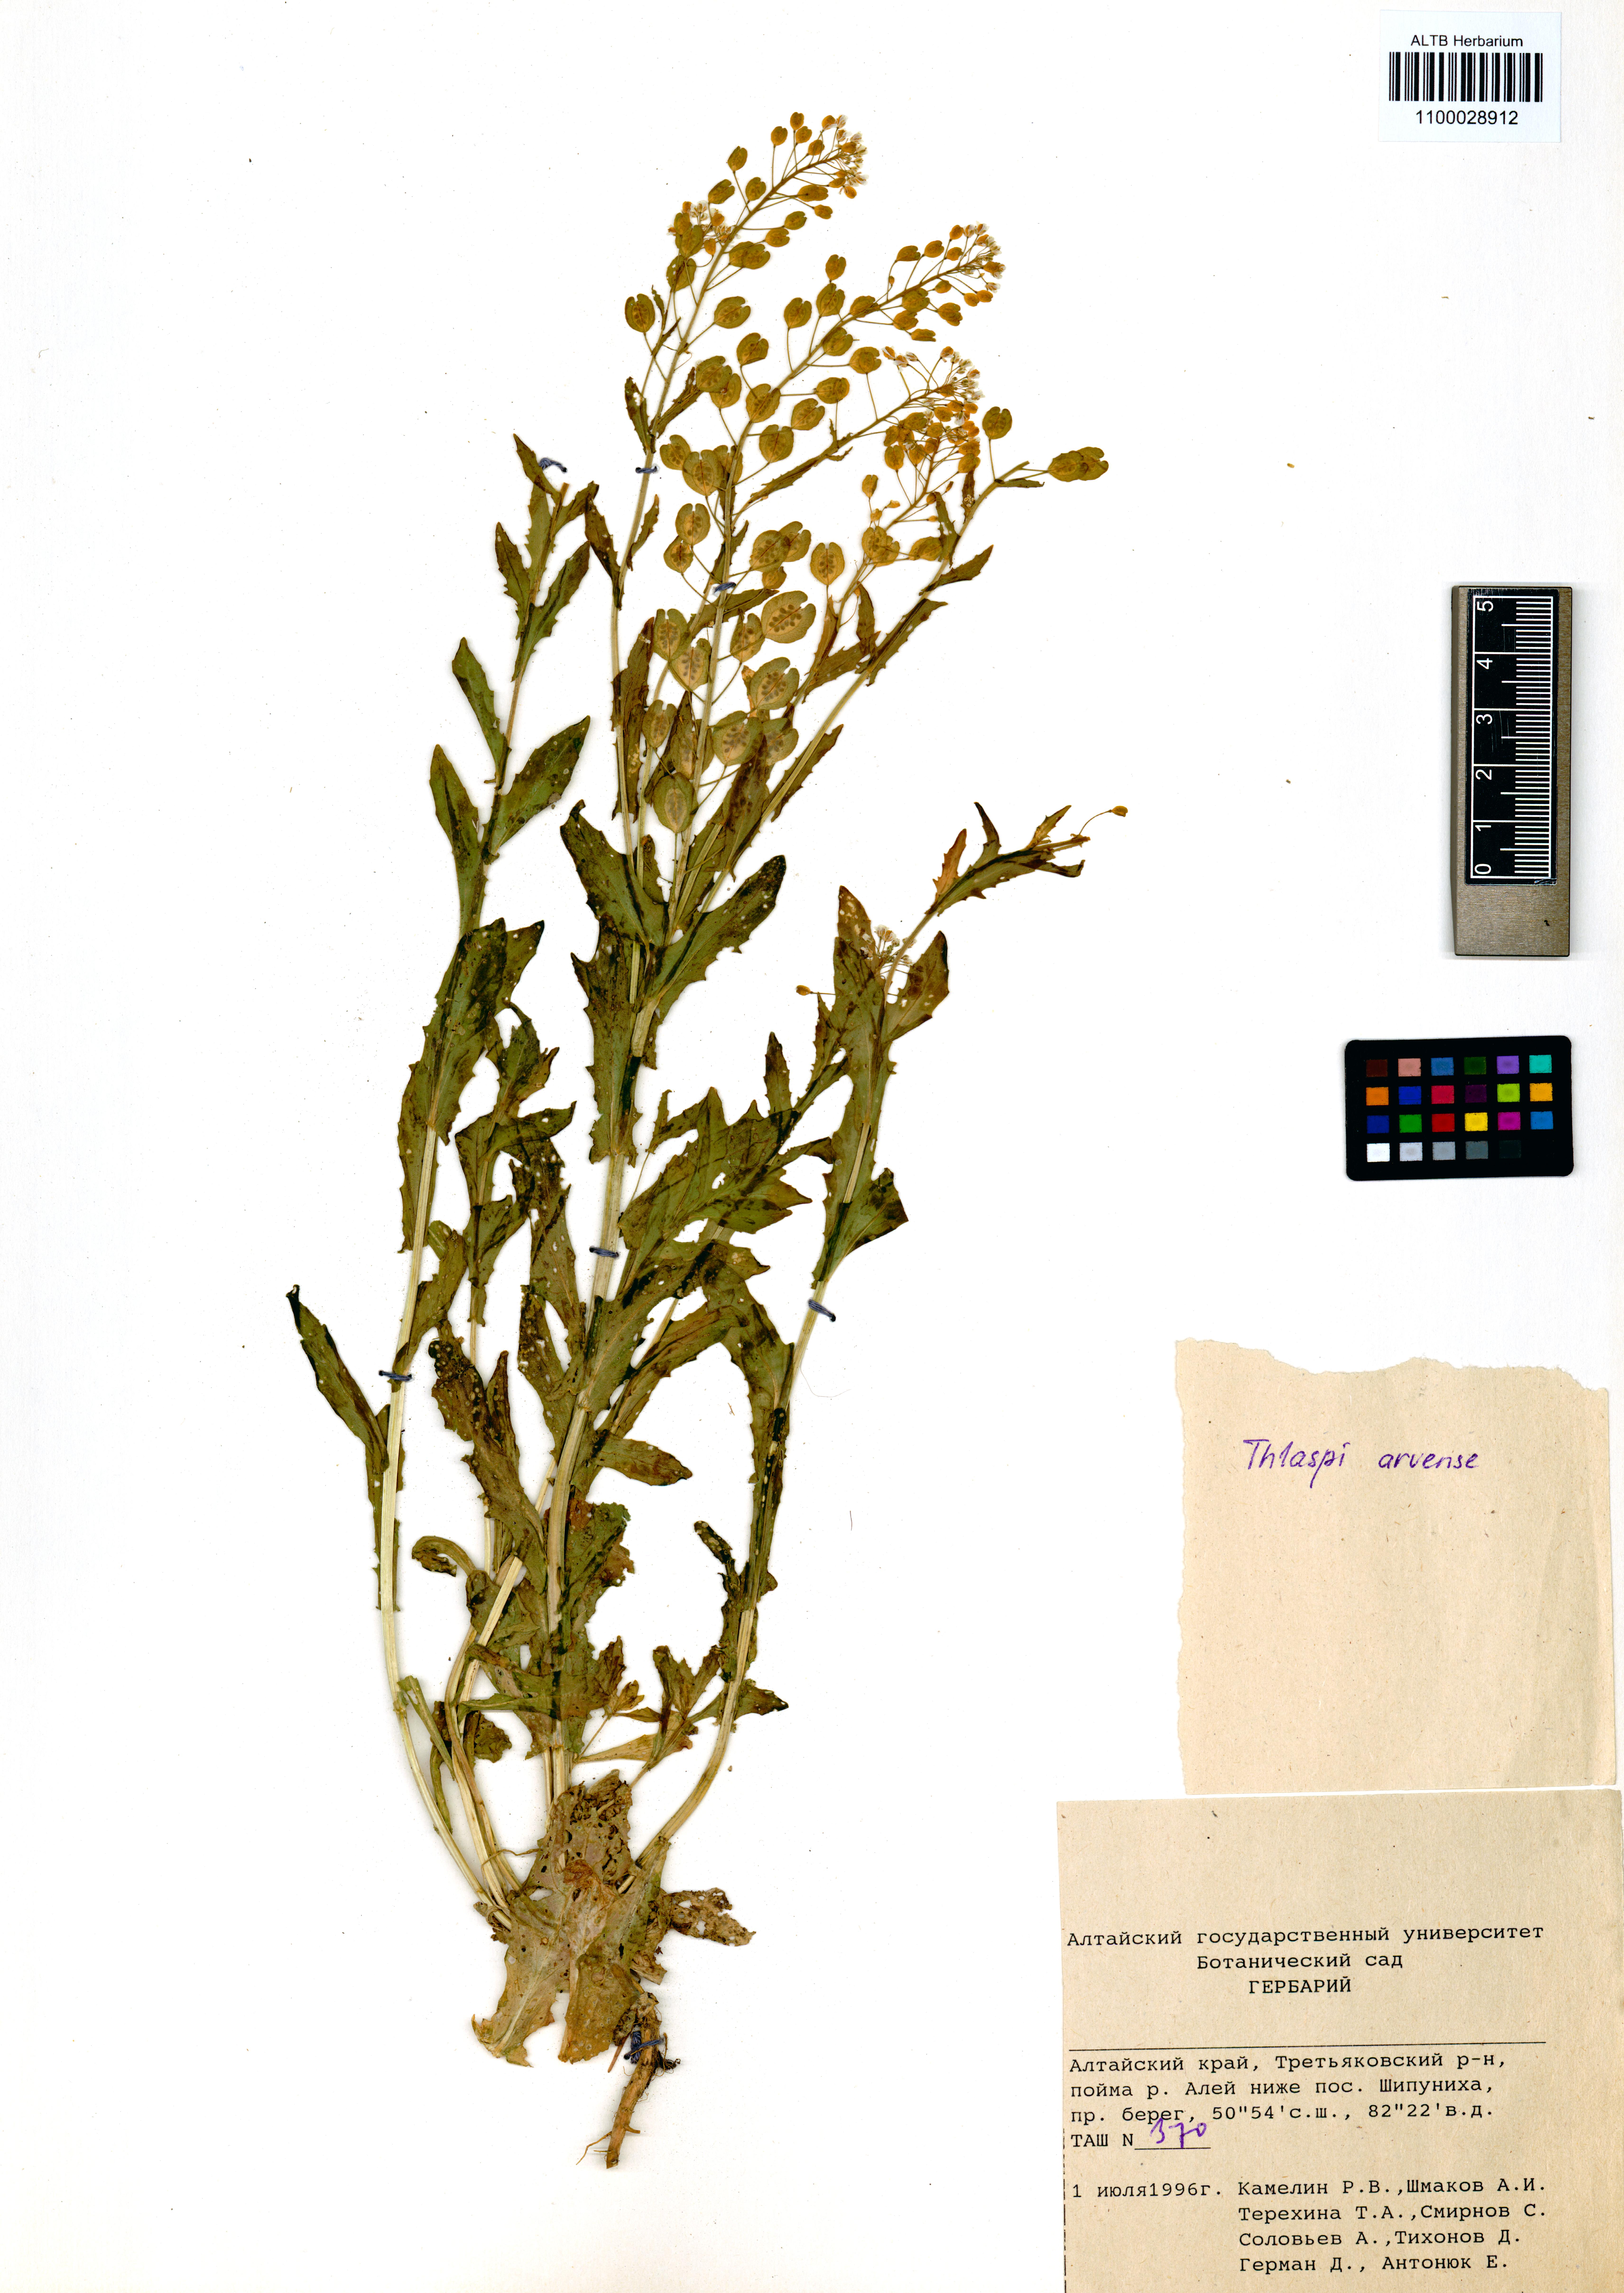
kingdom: Plantae
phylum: Tracheophyta
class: Magnoliopsida
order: Brassicales
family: Brassicaceae
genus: Thlaspi
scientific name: Thlaspi arvense
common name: Field pennycress
